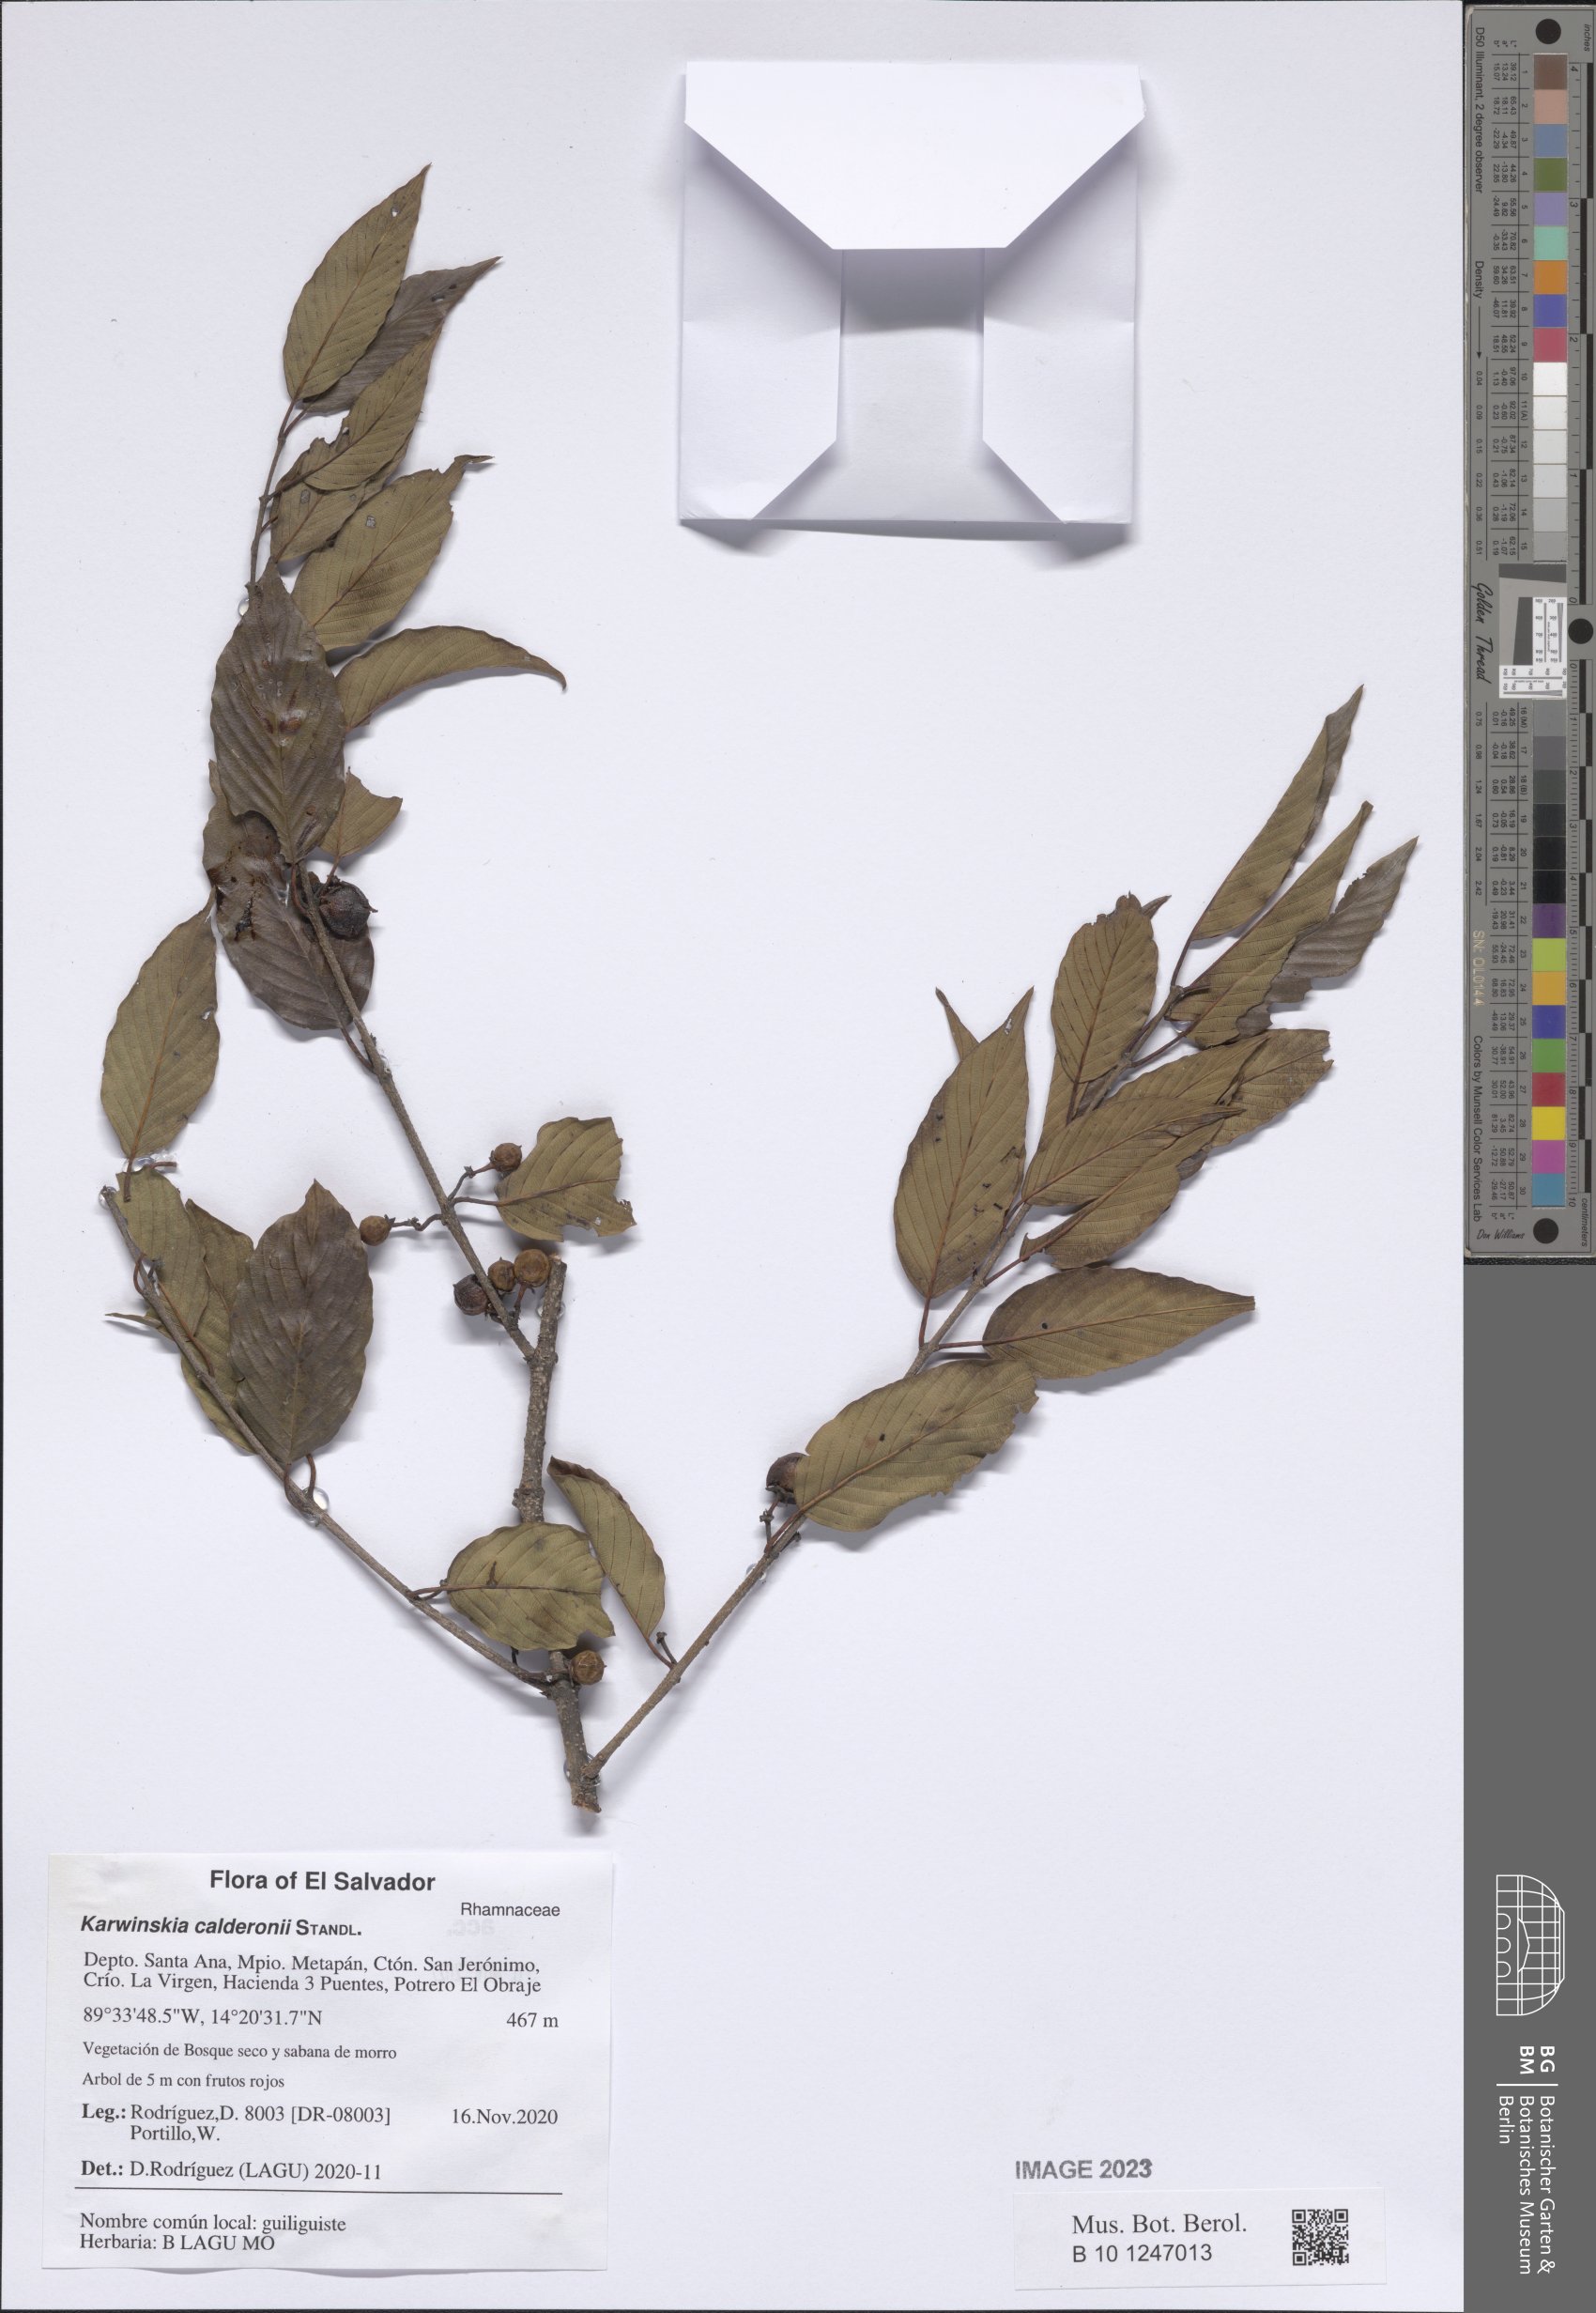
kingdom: Plantae
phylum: Tracheophyta
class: Magnoliopsida
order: Rosales
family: Rhamnaceae
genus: Karwinskia
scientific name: Karwinskia calderonii
